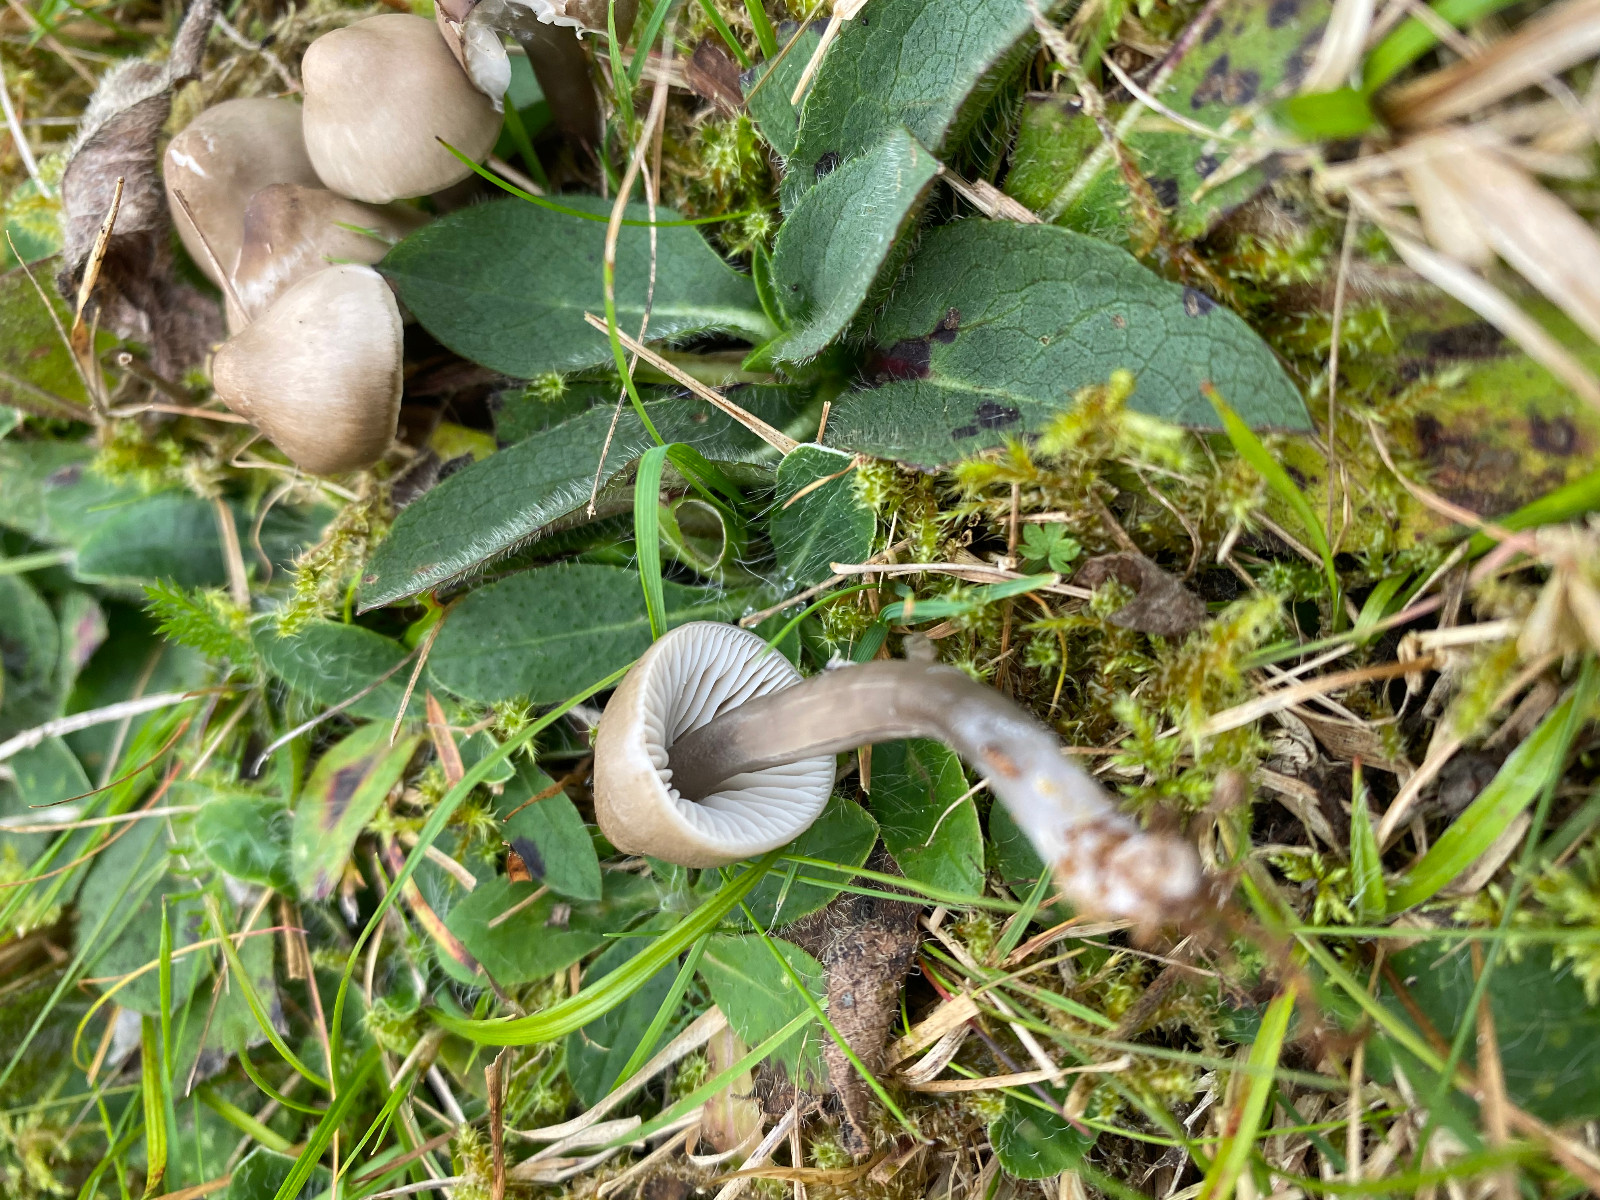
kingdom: Fungi
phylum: Basidiomycota
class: Agaricomycetes
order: Agaricales
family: Hygrophoraceae
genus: Gliophorus
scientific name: Gliophorus irrigatus
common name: slimet vokshat
